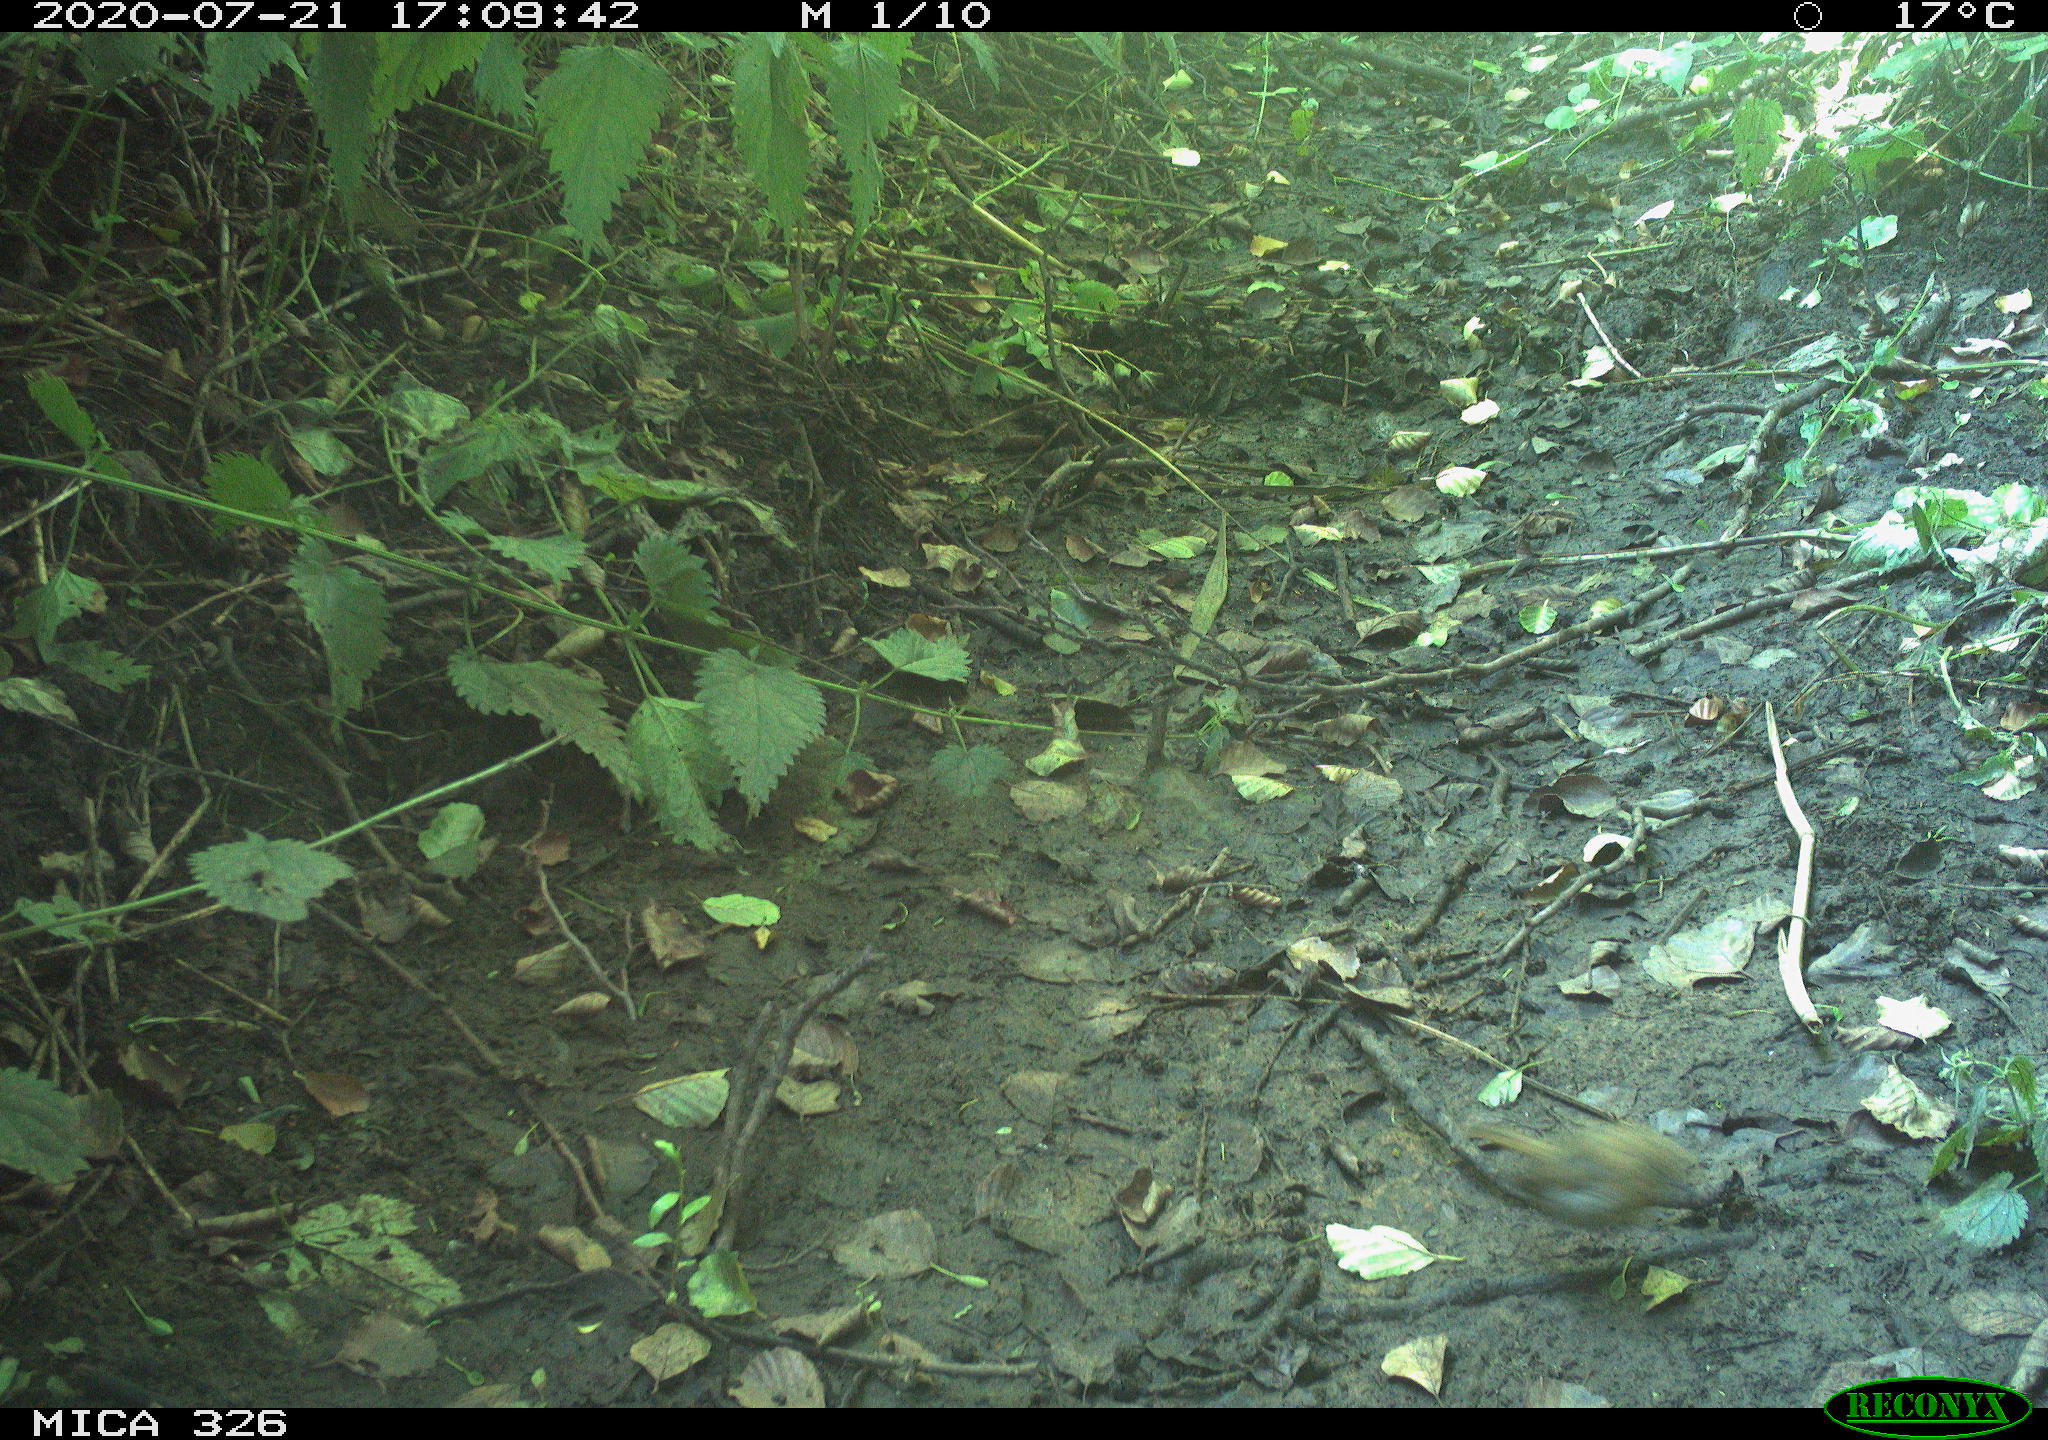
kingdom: Animalia
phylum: Chordata
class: Aves
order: Passeriformes
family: Turdidae
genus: Turdus
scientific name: Turdus philomelos
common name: Song thrush
